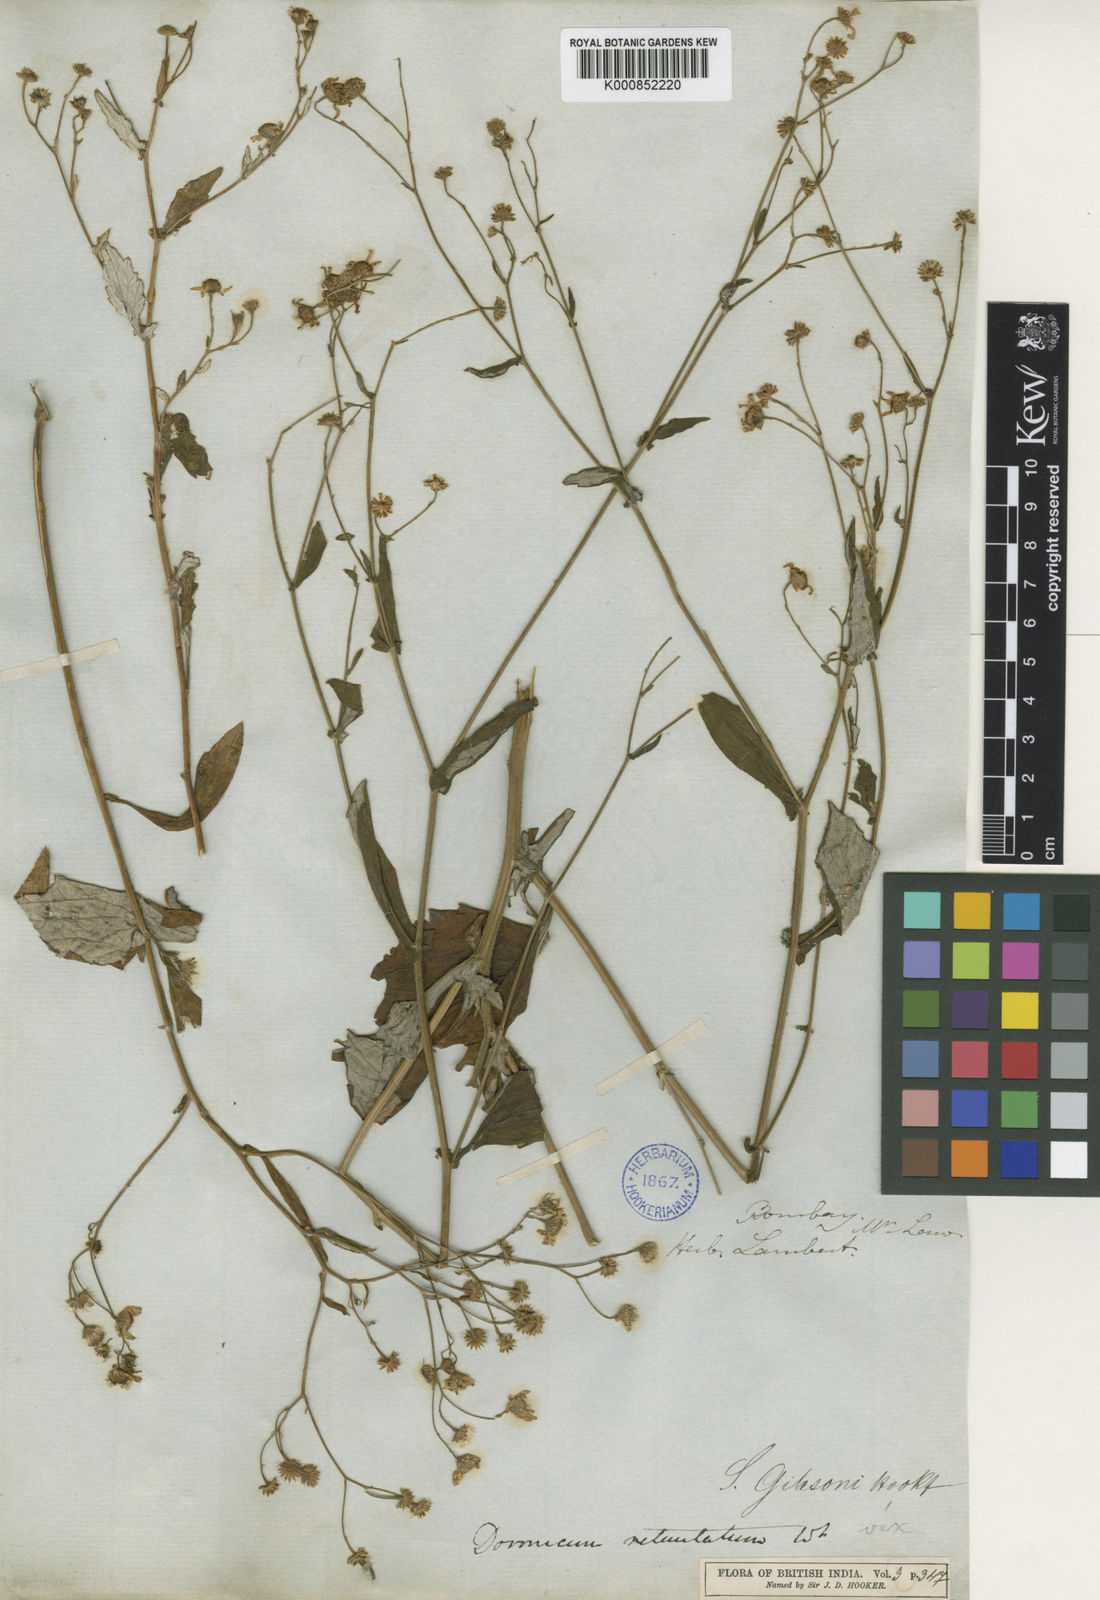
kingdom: Plantae
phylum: Tracheophyta
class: Magnoliopsida
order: Asterales
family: Asteraceae
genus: Senecio
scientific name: Senecio gibsonii
